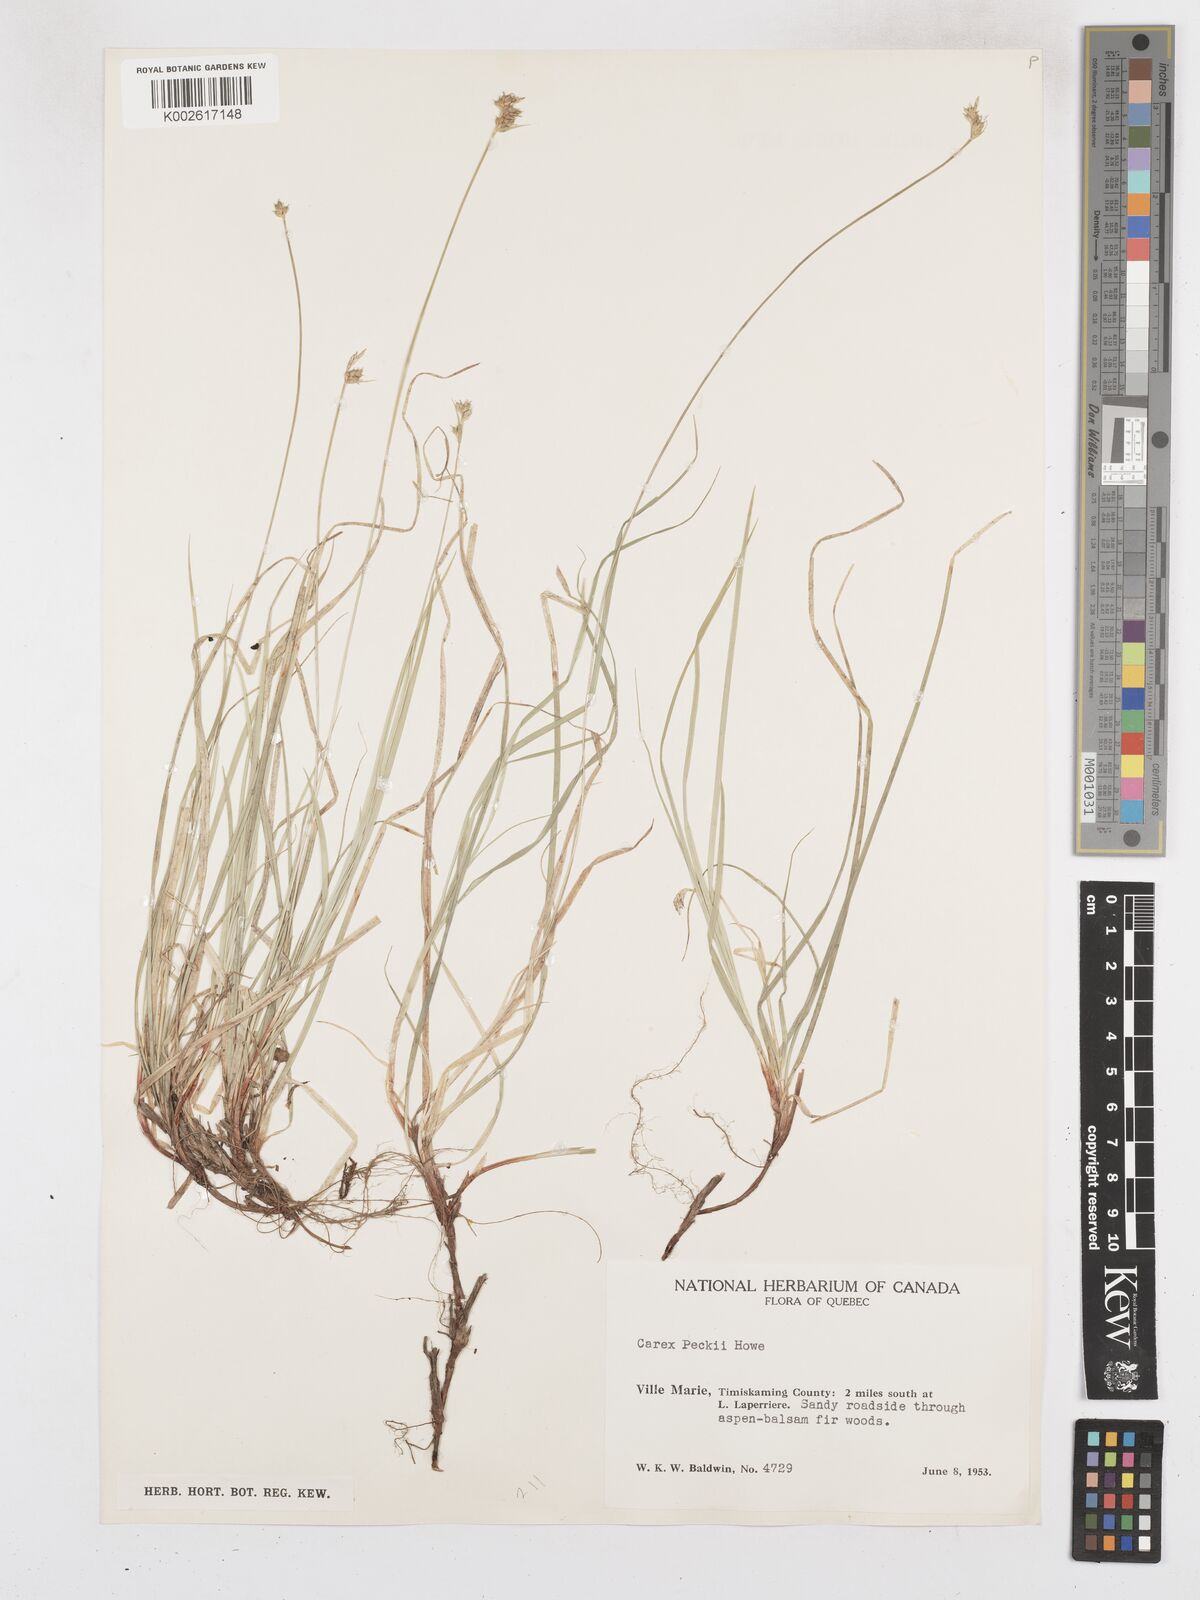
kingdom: Plantae
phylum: Tracheophyta
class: Liliopsida
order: Poales
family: Cyperaceae
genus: Carex
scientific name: Carex peckii
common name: Peck's oak sedge
